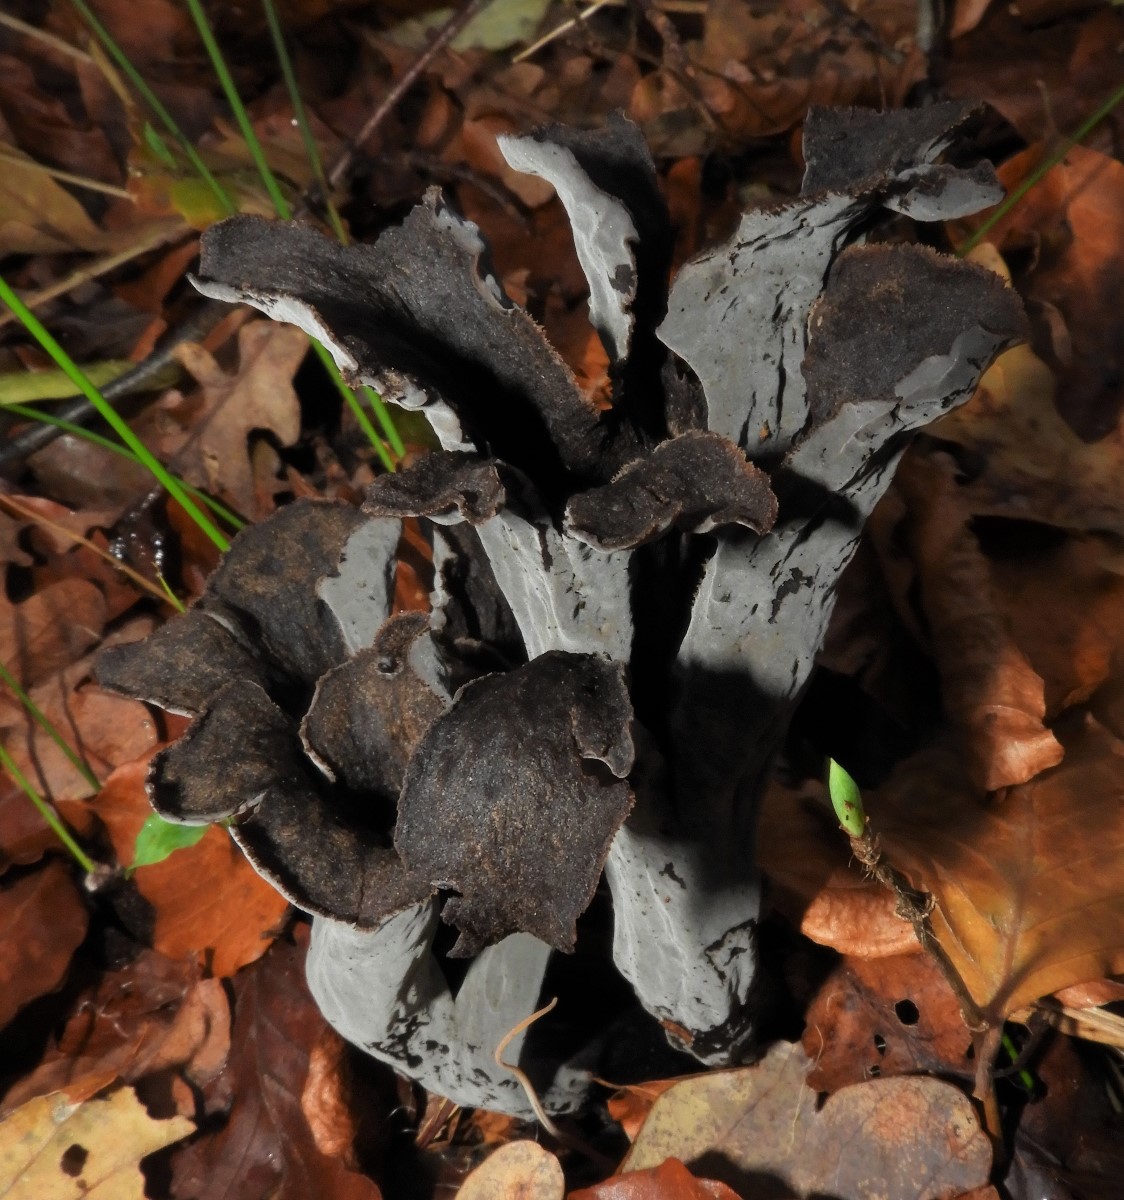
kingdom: Fungi
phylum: Basidiomycota
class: Agaricomycetes
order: Cantharellales
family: Hydnaceae
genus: Craterellus
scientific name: Craterellus cornucopioides
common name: trompetsvamp
